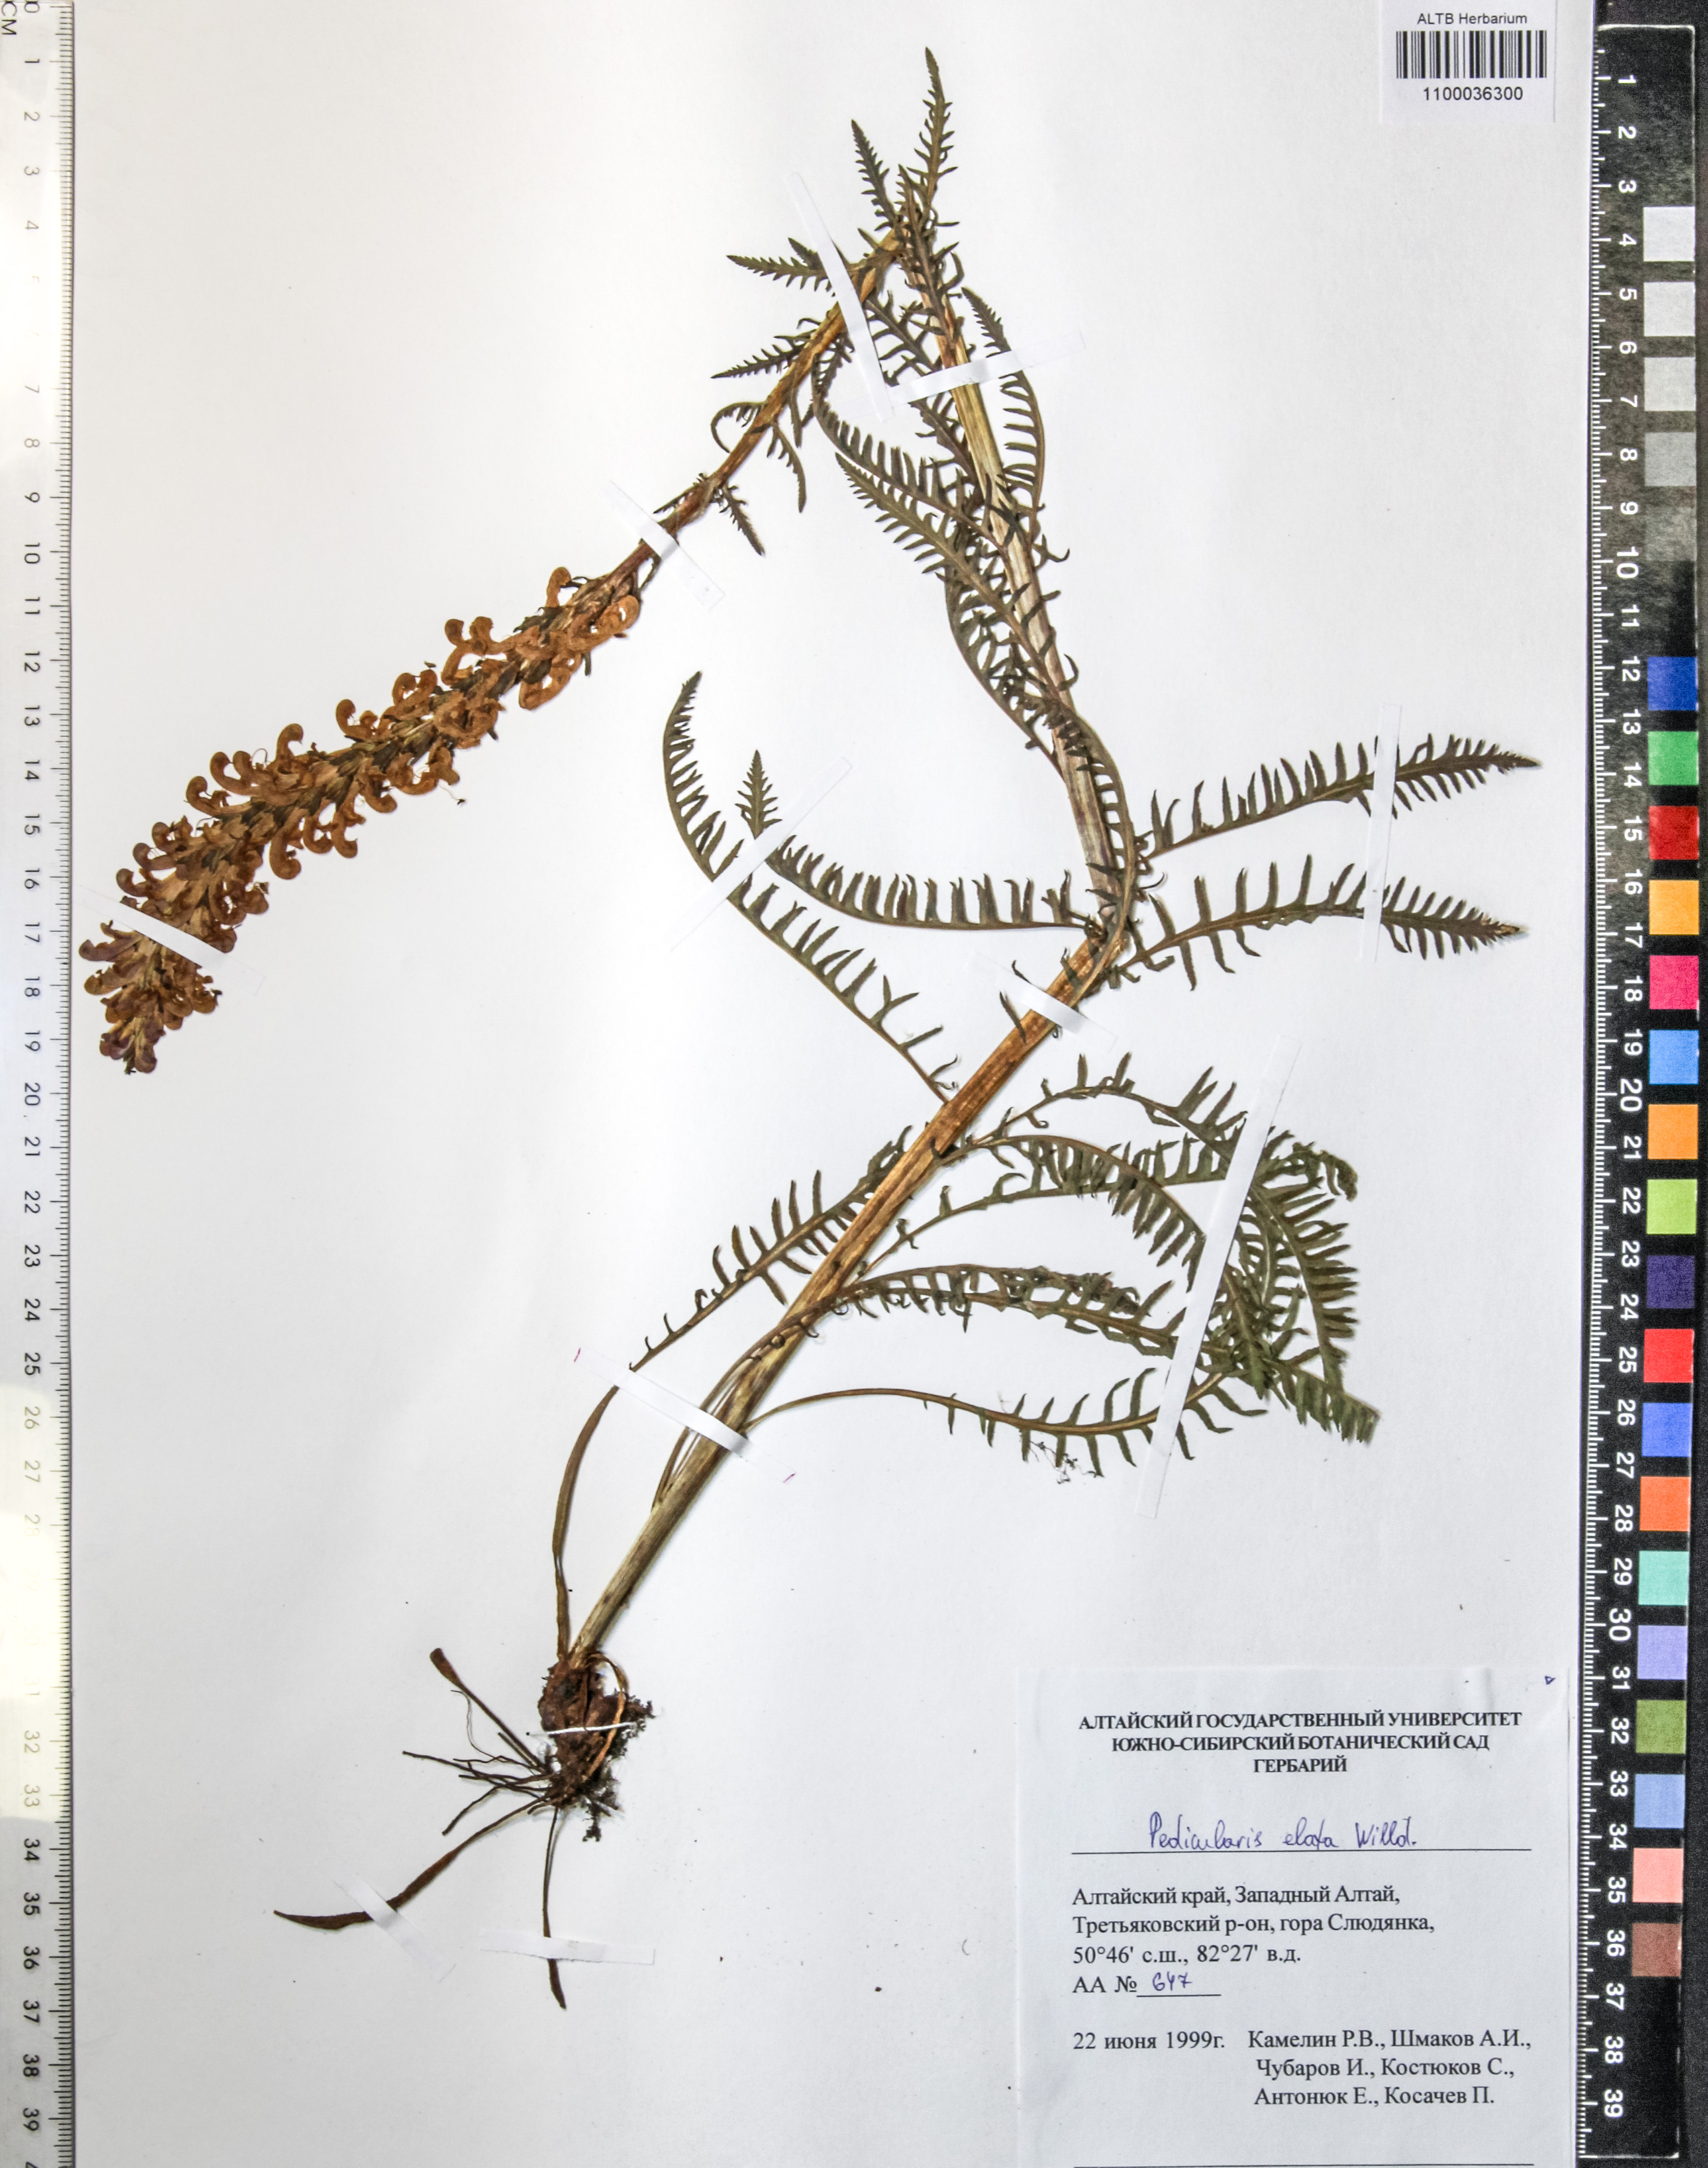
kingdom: Plantae
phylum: Tracheophyta
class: Magnoliopsida
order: Lamiales
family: Orobanchaceae
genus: Pedicularis
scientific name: Pedicularis elata
